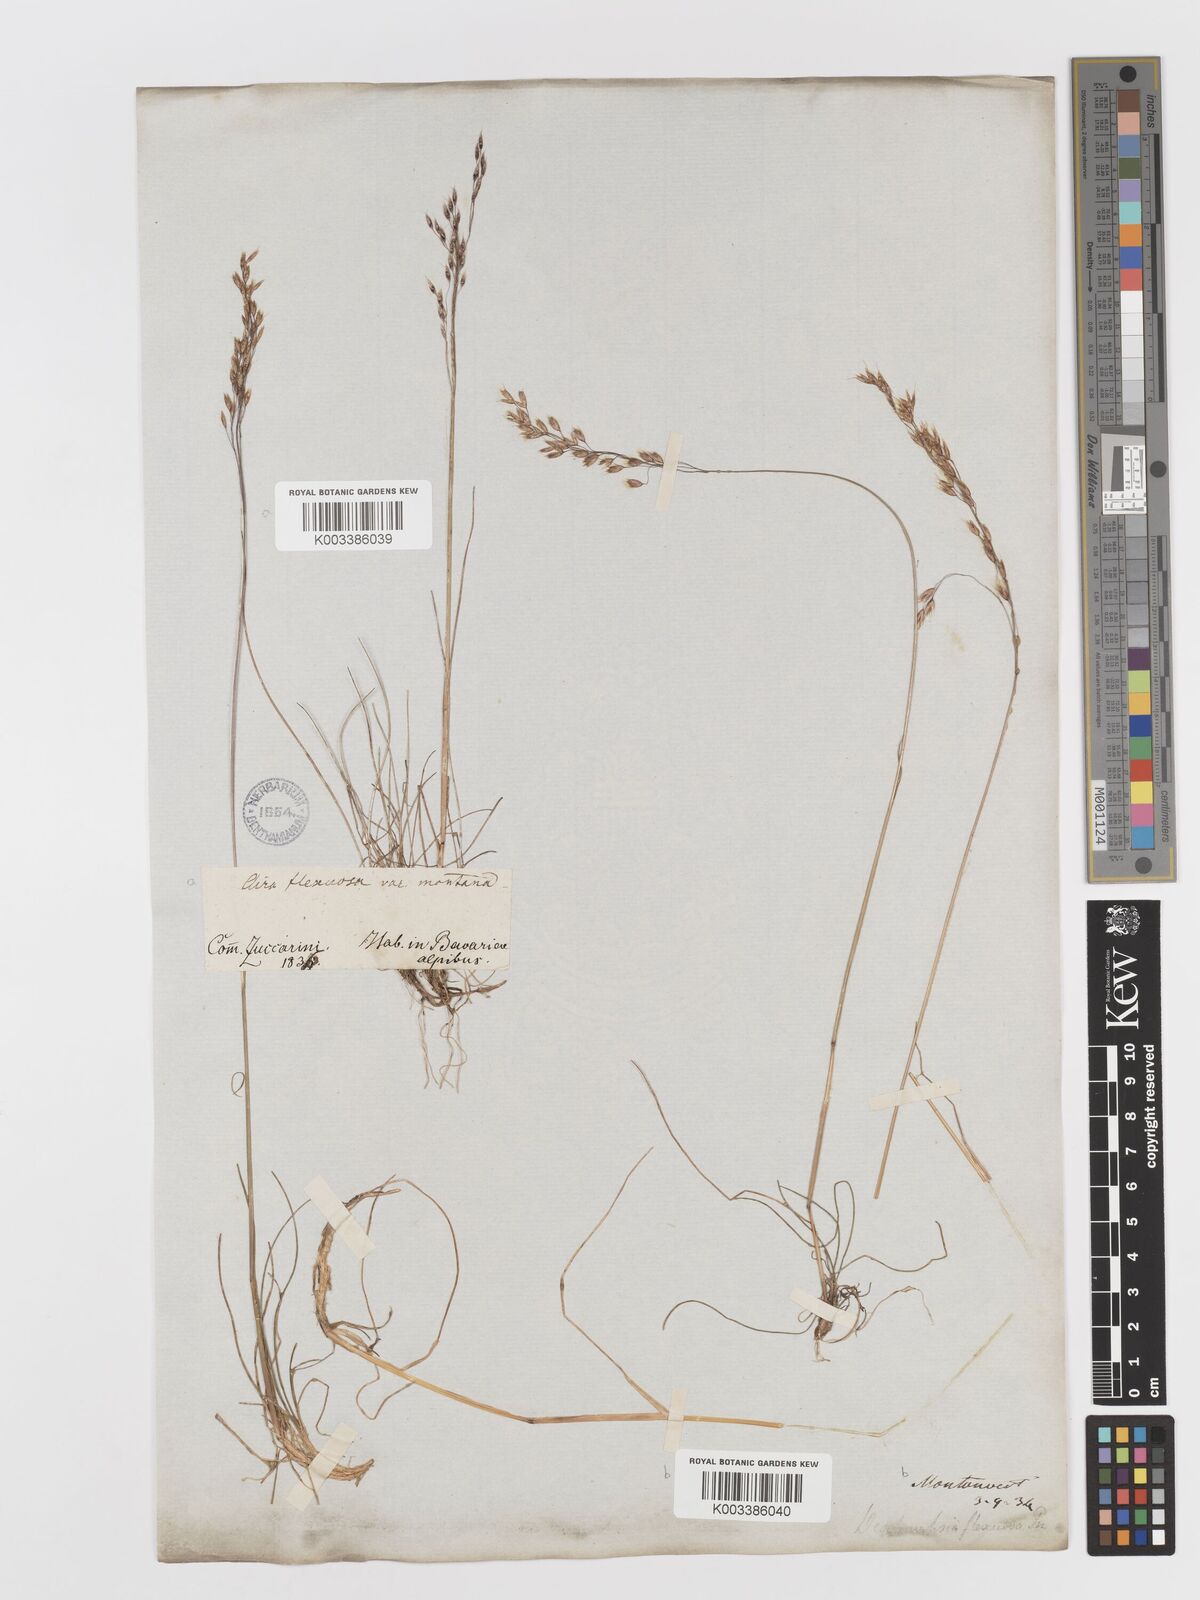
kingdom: Plantae
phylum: Tracheophyta
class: Liliopsida
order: Poales
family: Poaceae
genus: Avenella
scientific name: Avenella flexuosa
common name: Wavy hairgrass
